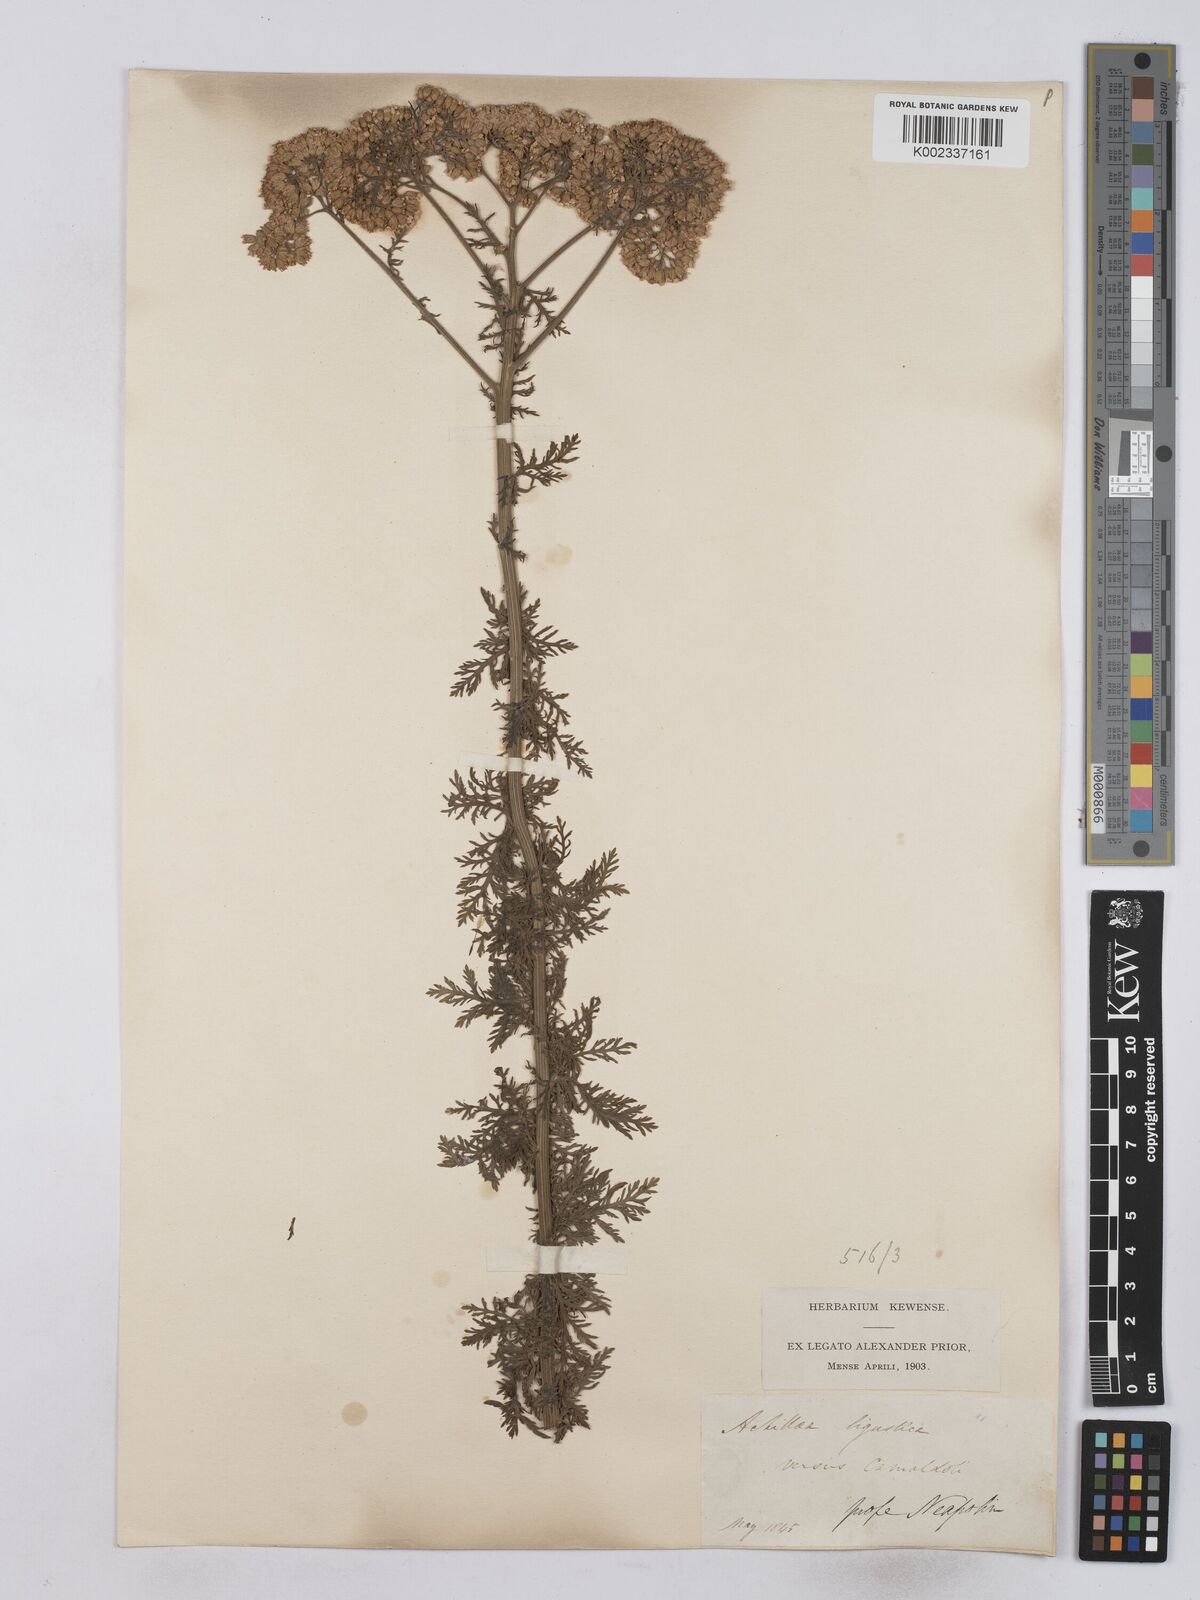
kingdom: Plantae
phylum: Tracheophyta
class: Magnoliopsida
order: Asterales
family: Asteraceae
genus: Achillea
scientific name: Achillea ligustica
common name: Southern yarrow
